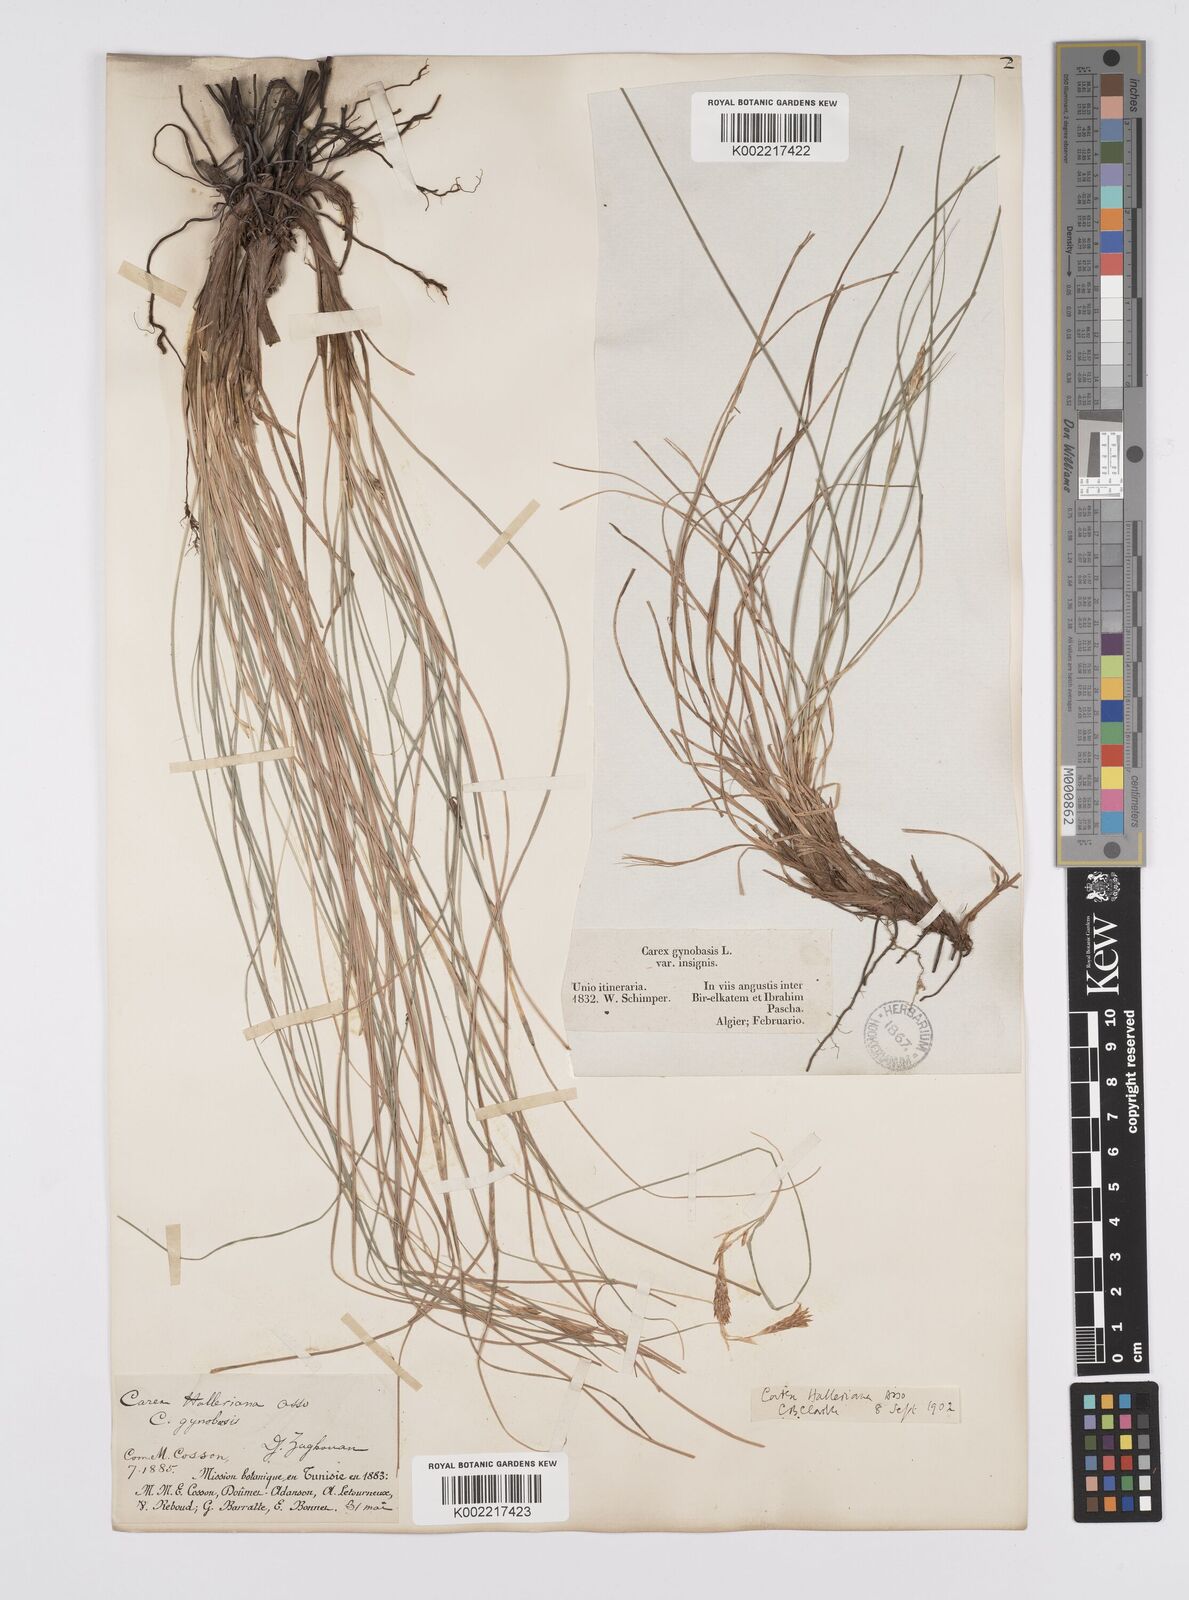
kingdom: Plantae
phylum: Tracheophyta
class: Liliopsida
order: Poales
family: Cyperaceae
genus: Carex
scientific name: Carex halleriana
